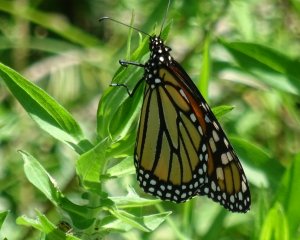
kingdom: Animalia
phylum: Arthropoda
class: Insecta
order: Lepidoptera
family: Nymphalidae
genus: Danaus
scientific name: Danaus plexippus
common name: Monarch
